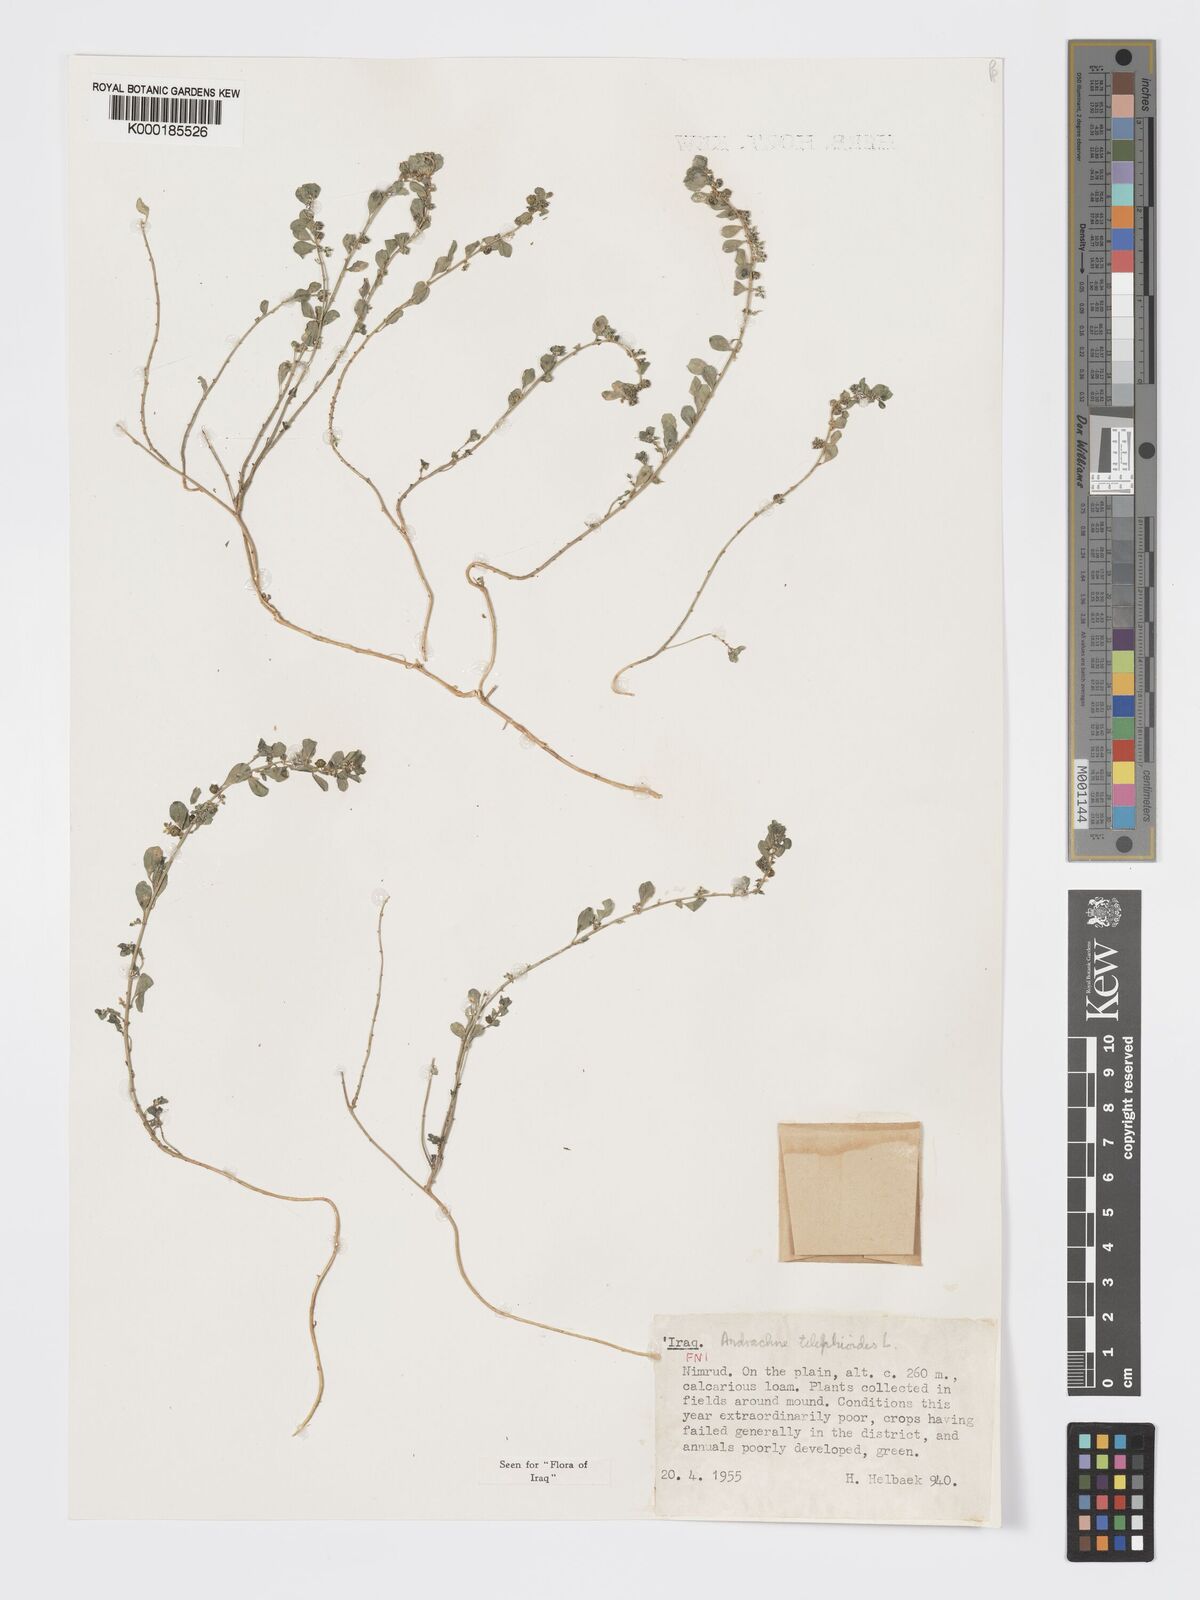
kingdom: Plantae
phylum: Tracheophyta
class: Magnoliopsida
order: Malpighiales
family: Phyllanthaceae
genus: Andrachne
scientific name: Andrachne telephioides
